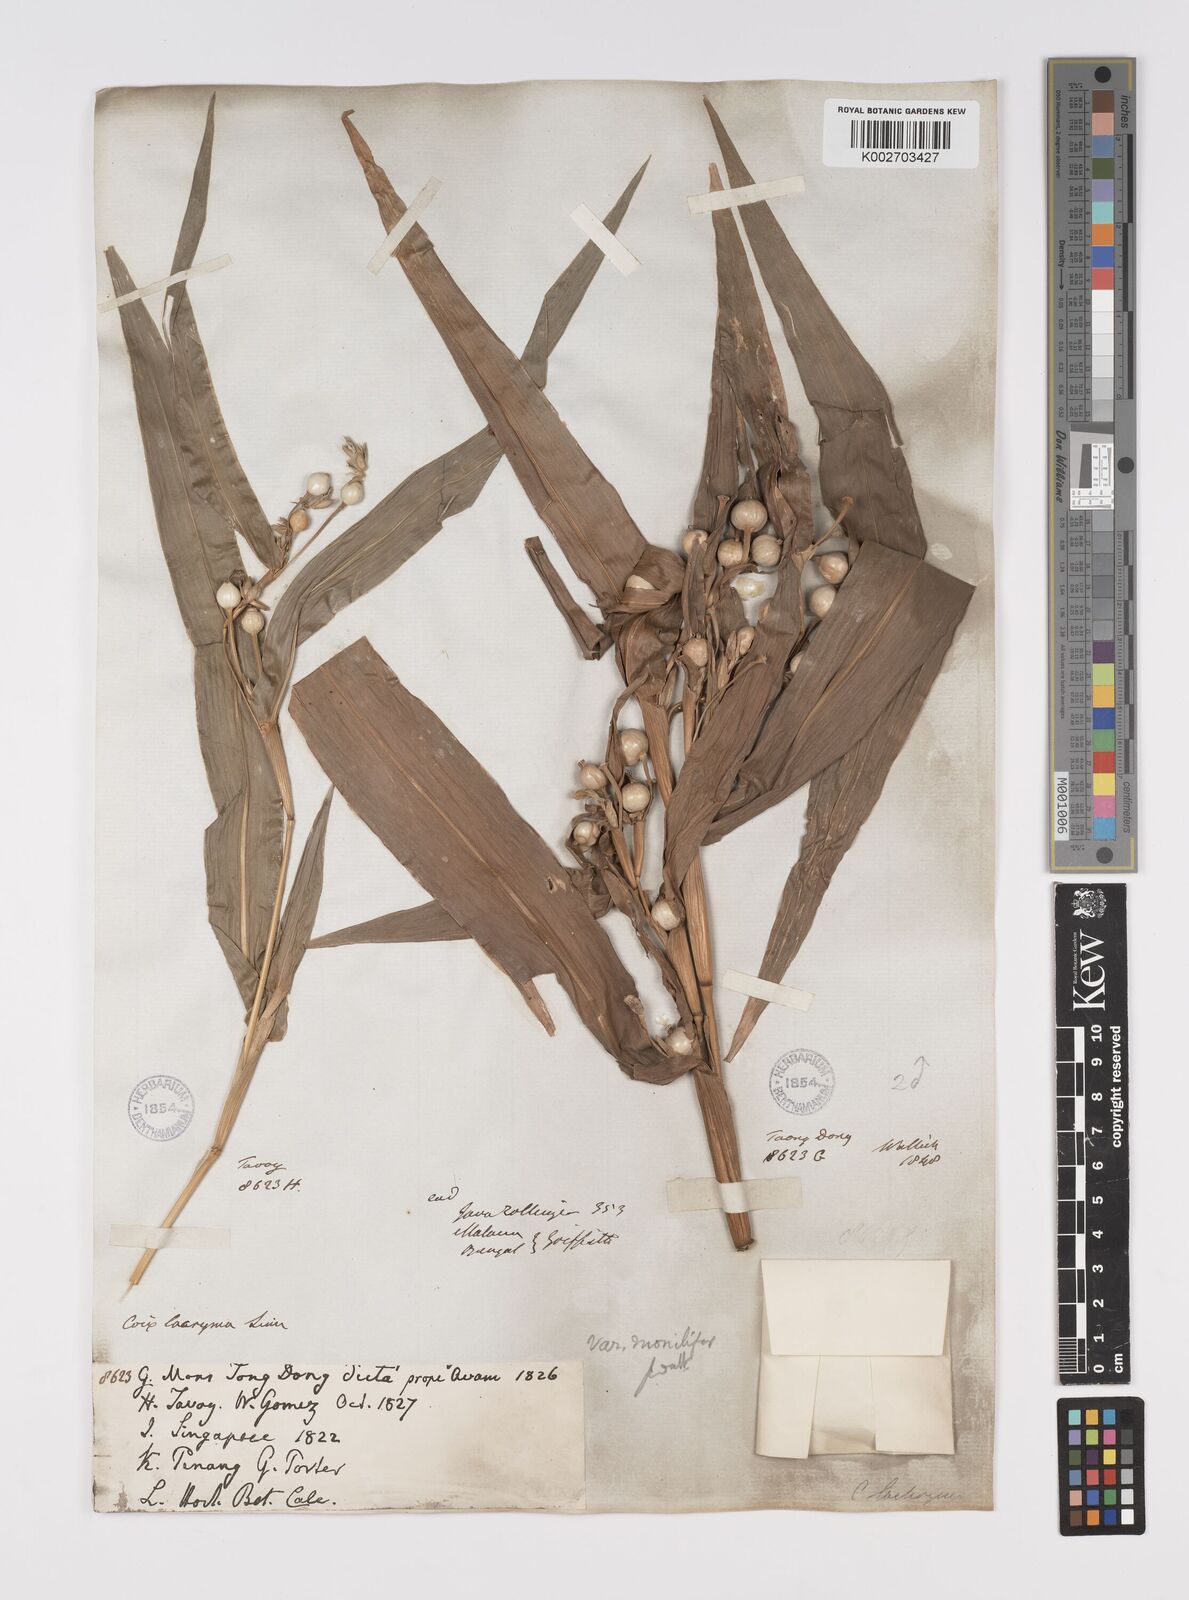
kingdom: Plantae
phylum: Tracheophyta
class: Liliopsida
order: Poales
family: Poaceae
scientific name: Poaceae
